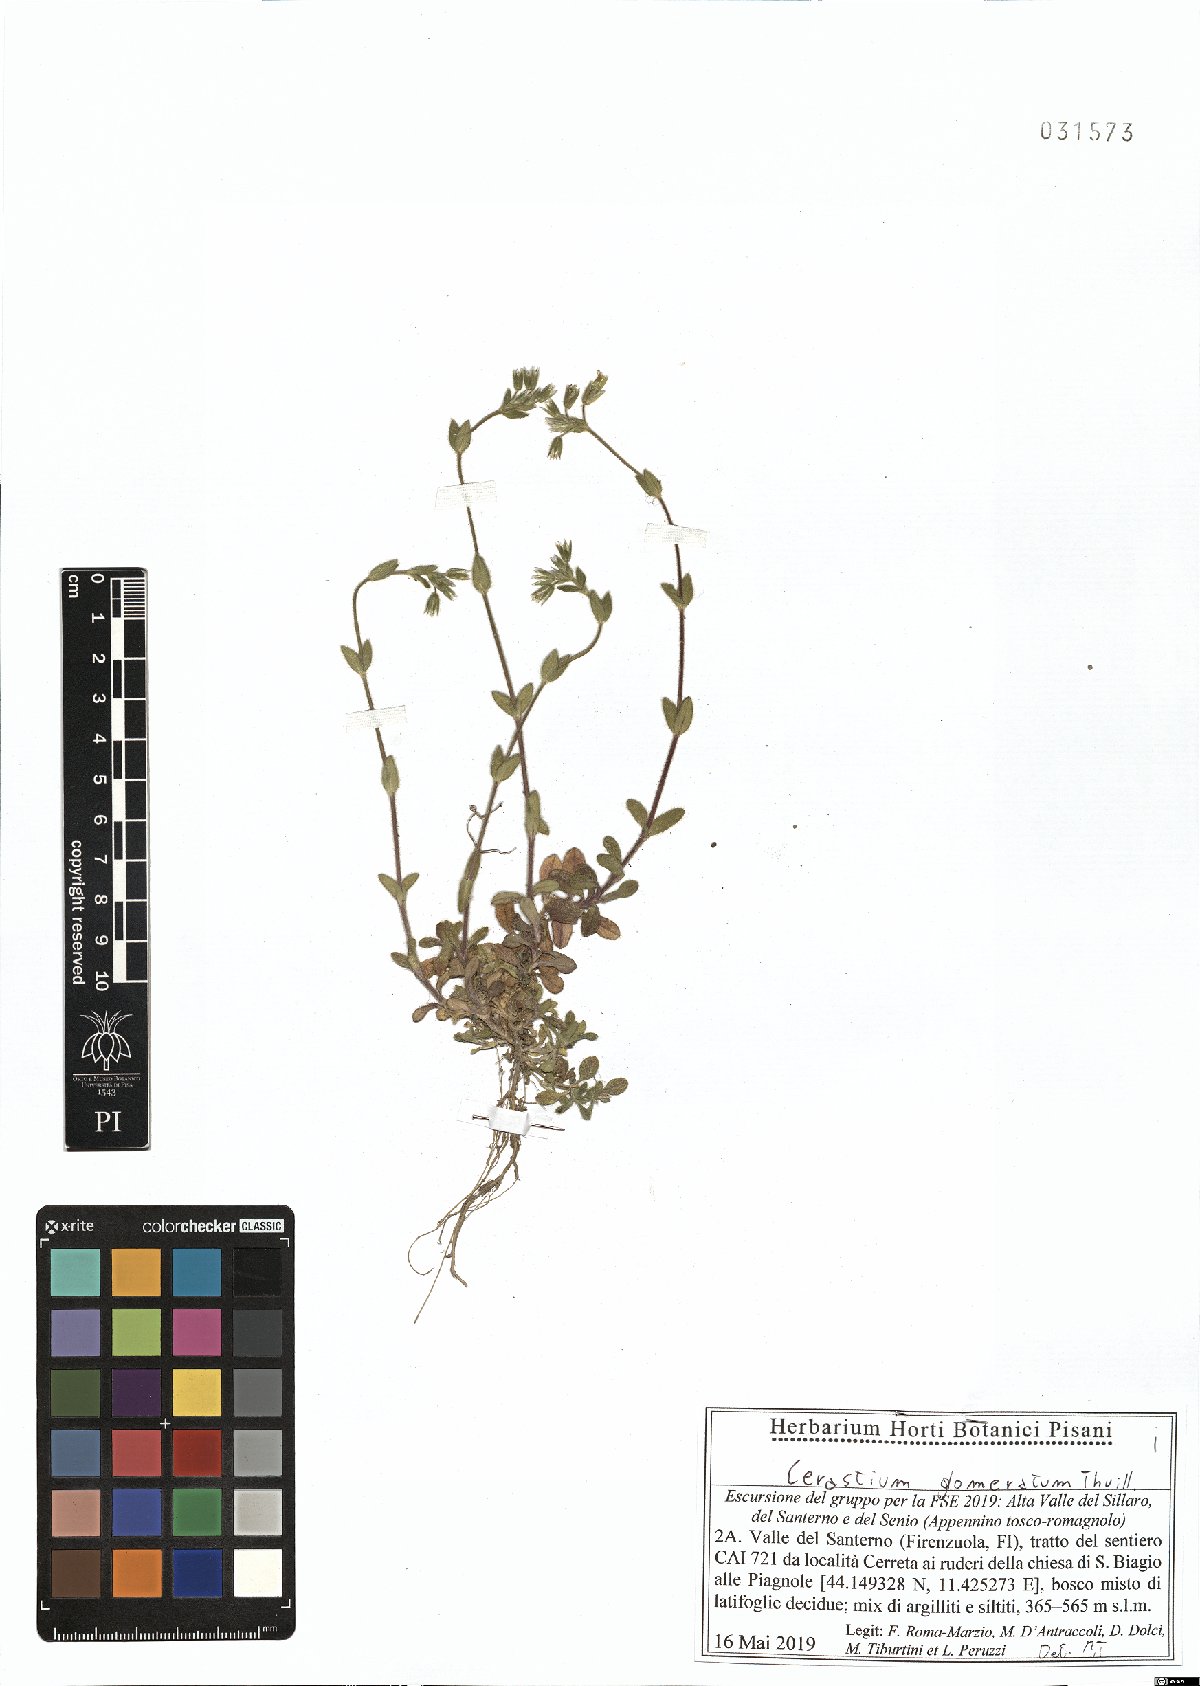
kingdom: Plantae
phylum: Tracheophyta
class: Magnoliopsida
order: Caryophyllales
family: Caryophyllaceae
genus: Cerastium
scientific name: Cerastium glomeratum
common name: Sticky chickweed
